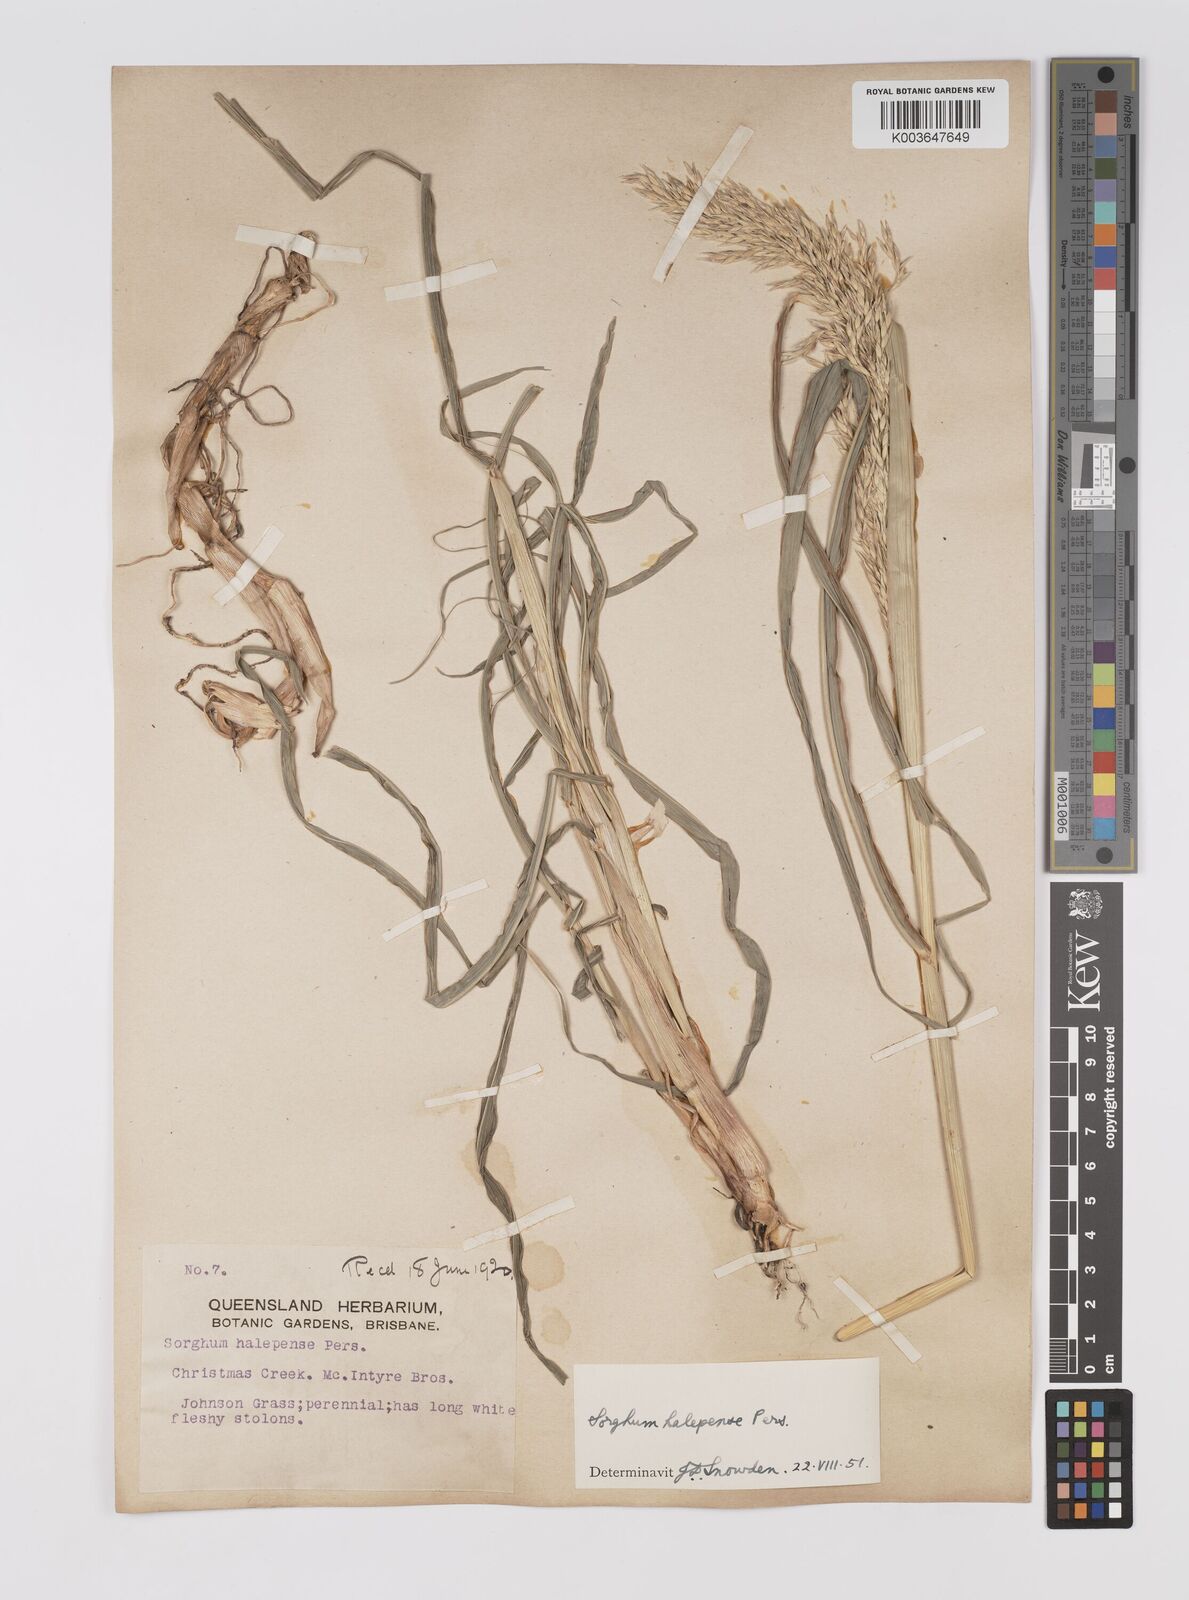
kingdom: Plantae
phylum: Tracheophyta
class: Liliopsida
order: Poales
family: Poaceae
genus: Sorghum
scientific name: Sorghum halepense
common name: Johnson-grass
